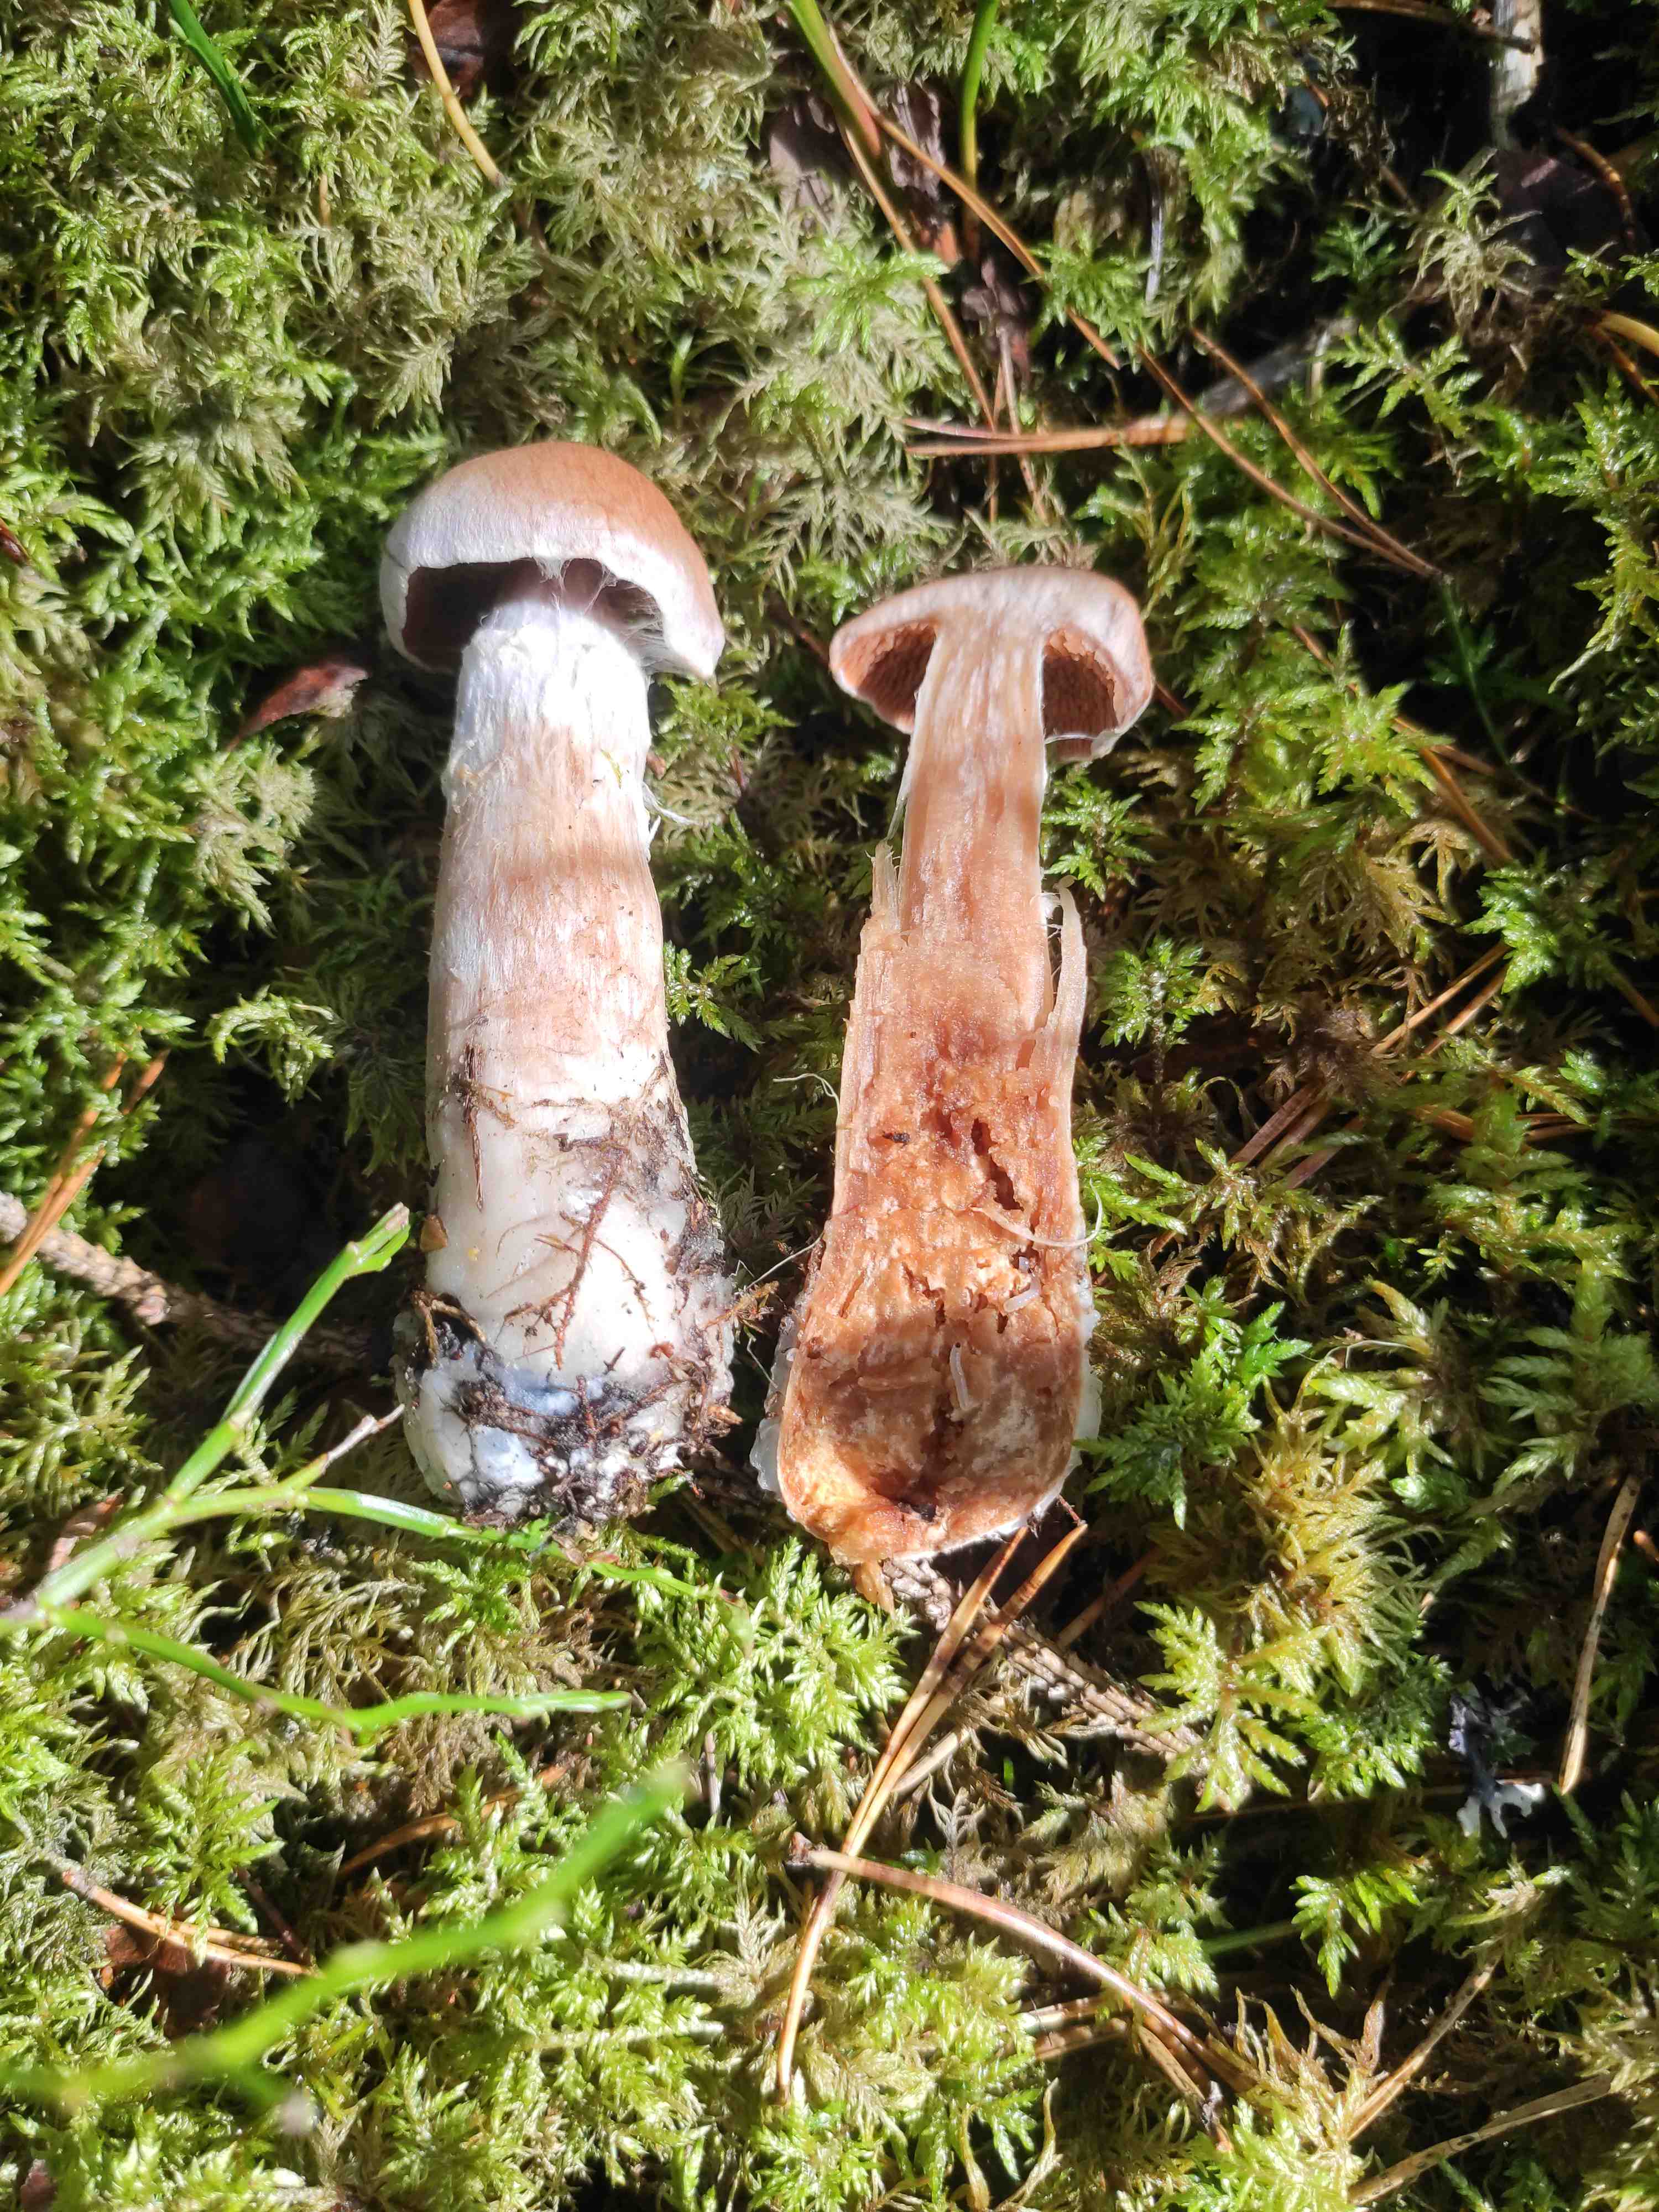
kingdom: Fungi
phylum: Basidiomycota
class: Agaricomycetes
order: Agaricales
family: Cortinariaceae
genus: Cortinarius
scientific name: Cortinarius
